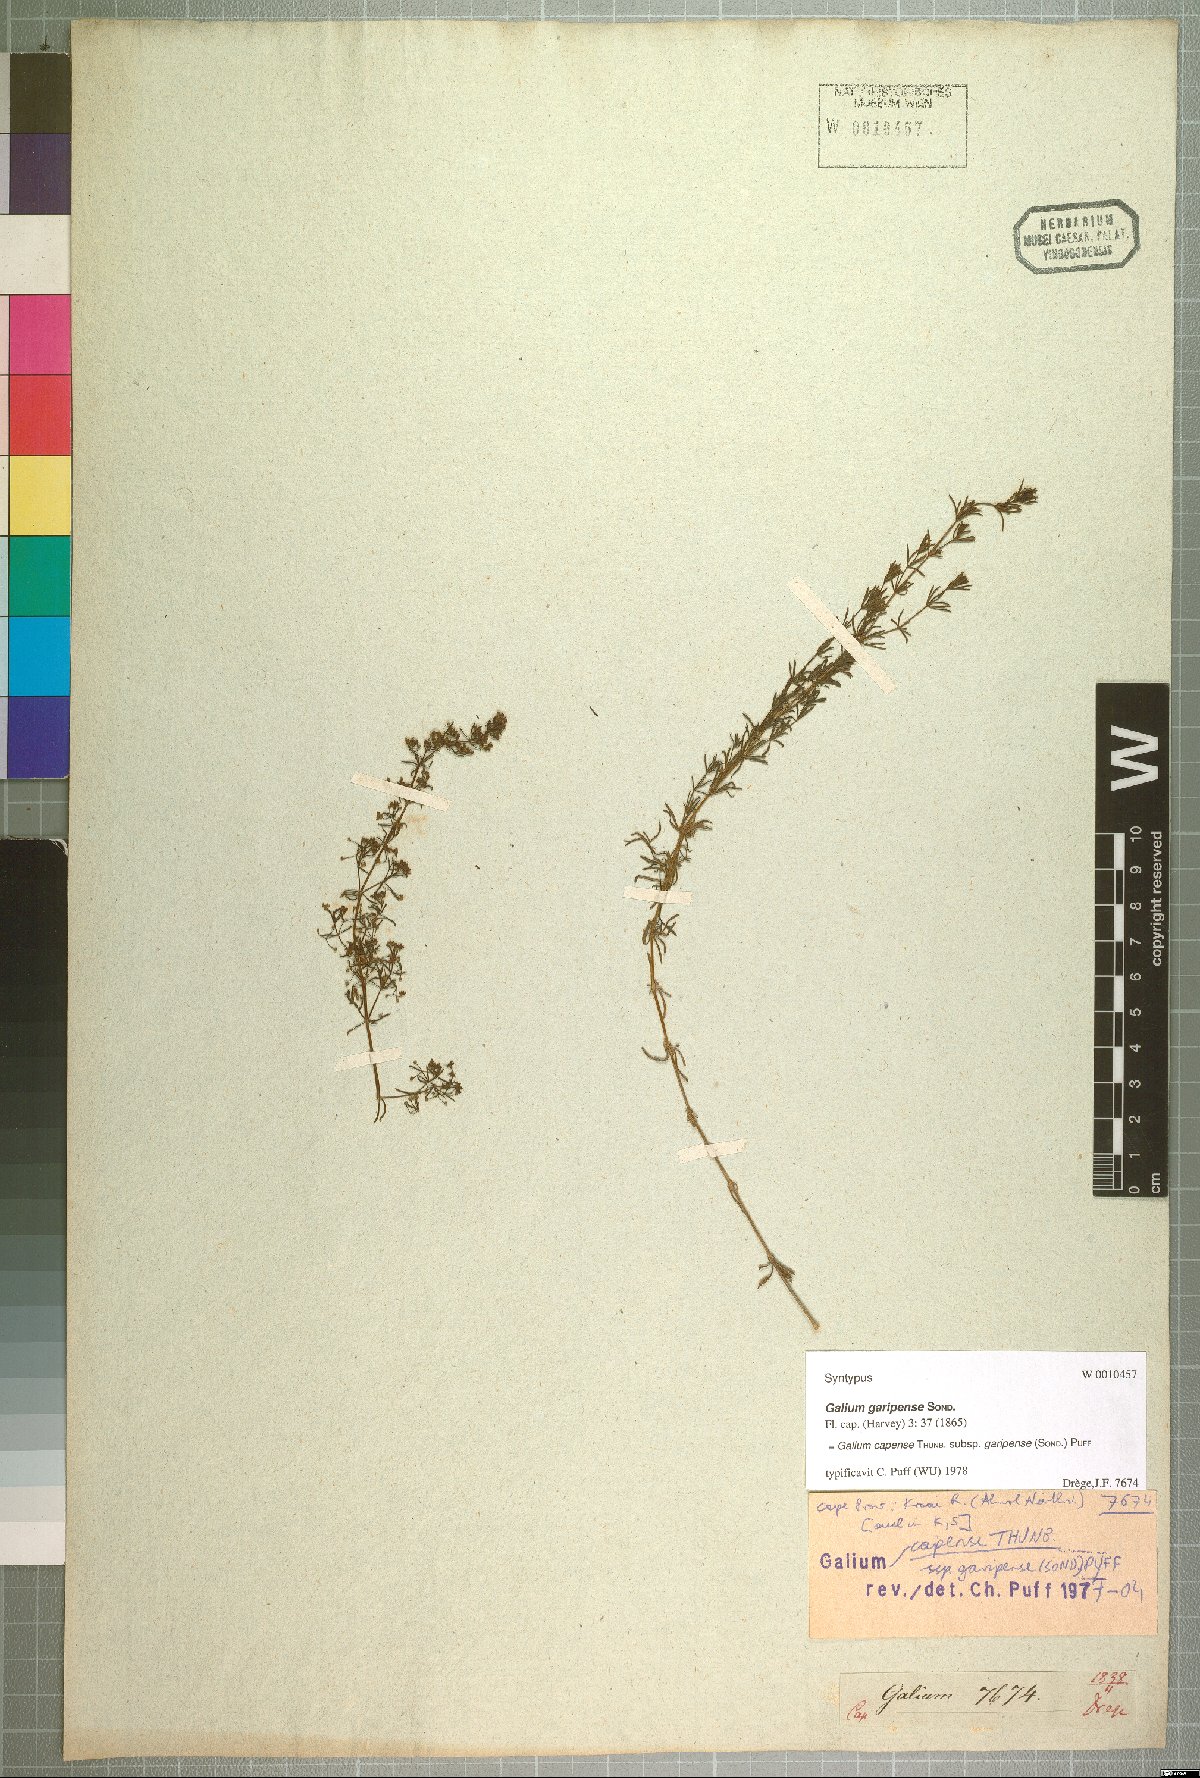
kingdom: Plantae
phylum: Tracheophyta
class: Magnoliopsida
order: Gentianales
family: Rubiaceae
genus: Galium
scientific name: Galium capense
